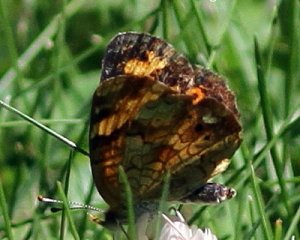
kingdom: Animalia
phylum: Arthropoda
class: Insecta
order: Lepidoptera
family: Nymphalidae
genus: Phyciodes
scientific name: Phyciodes tharos
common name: Pearl Crescent
